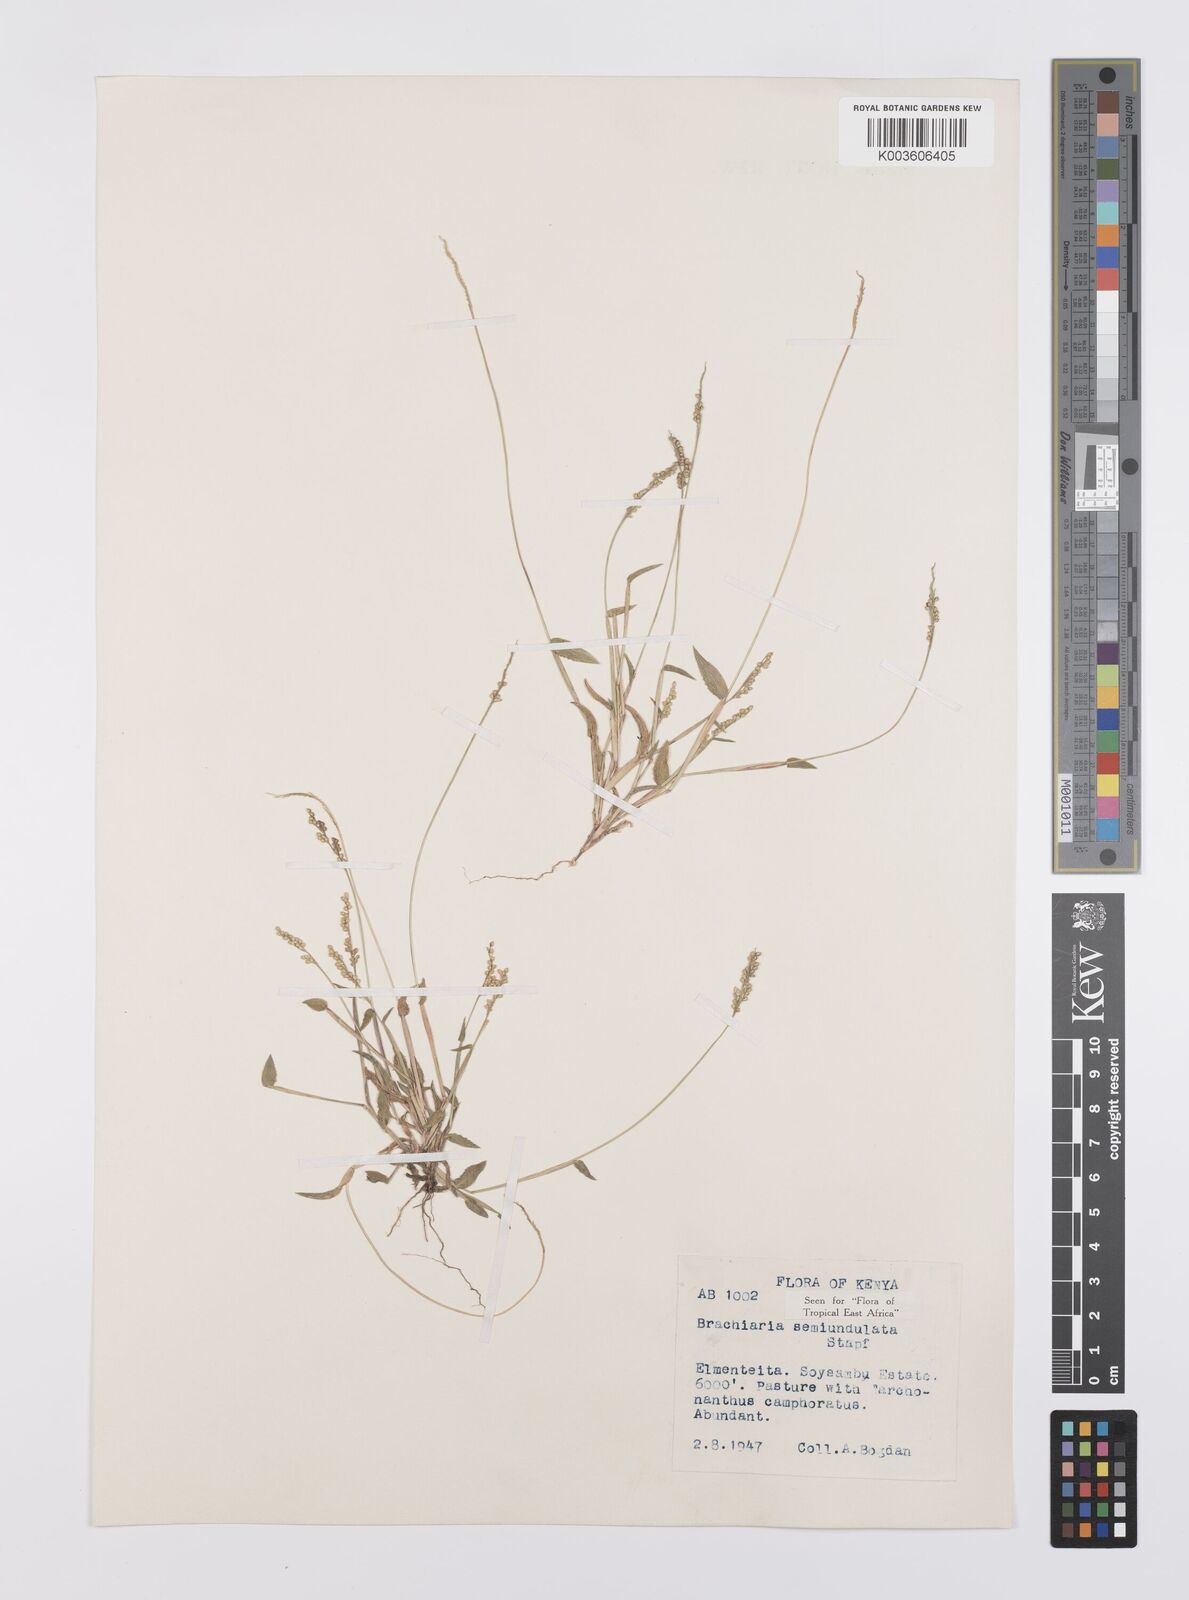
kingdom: Plantae
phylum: Tracheophyta
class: Liliopsida
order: Poales
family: Poaceae
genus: Urochloa
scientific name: Urochloa semiundulata
